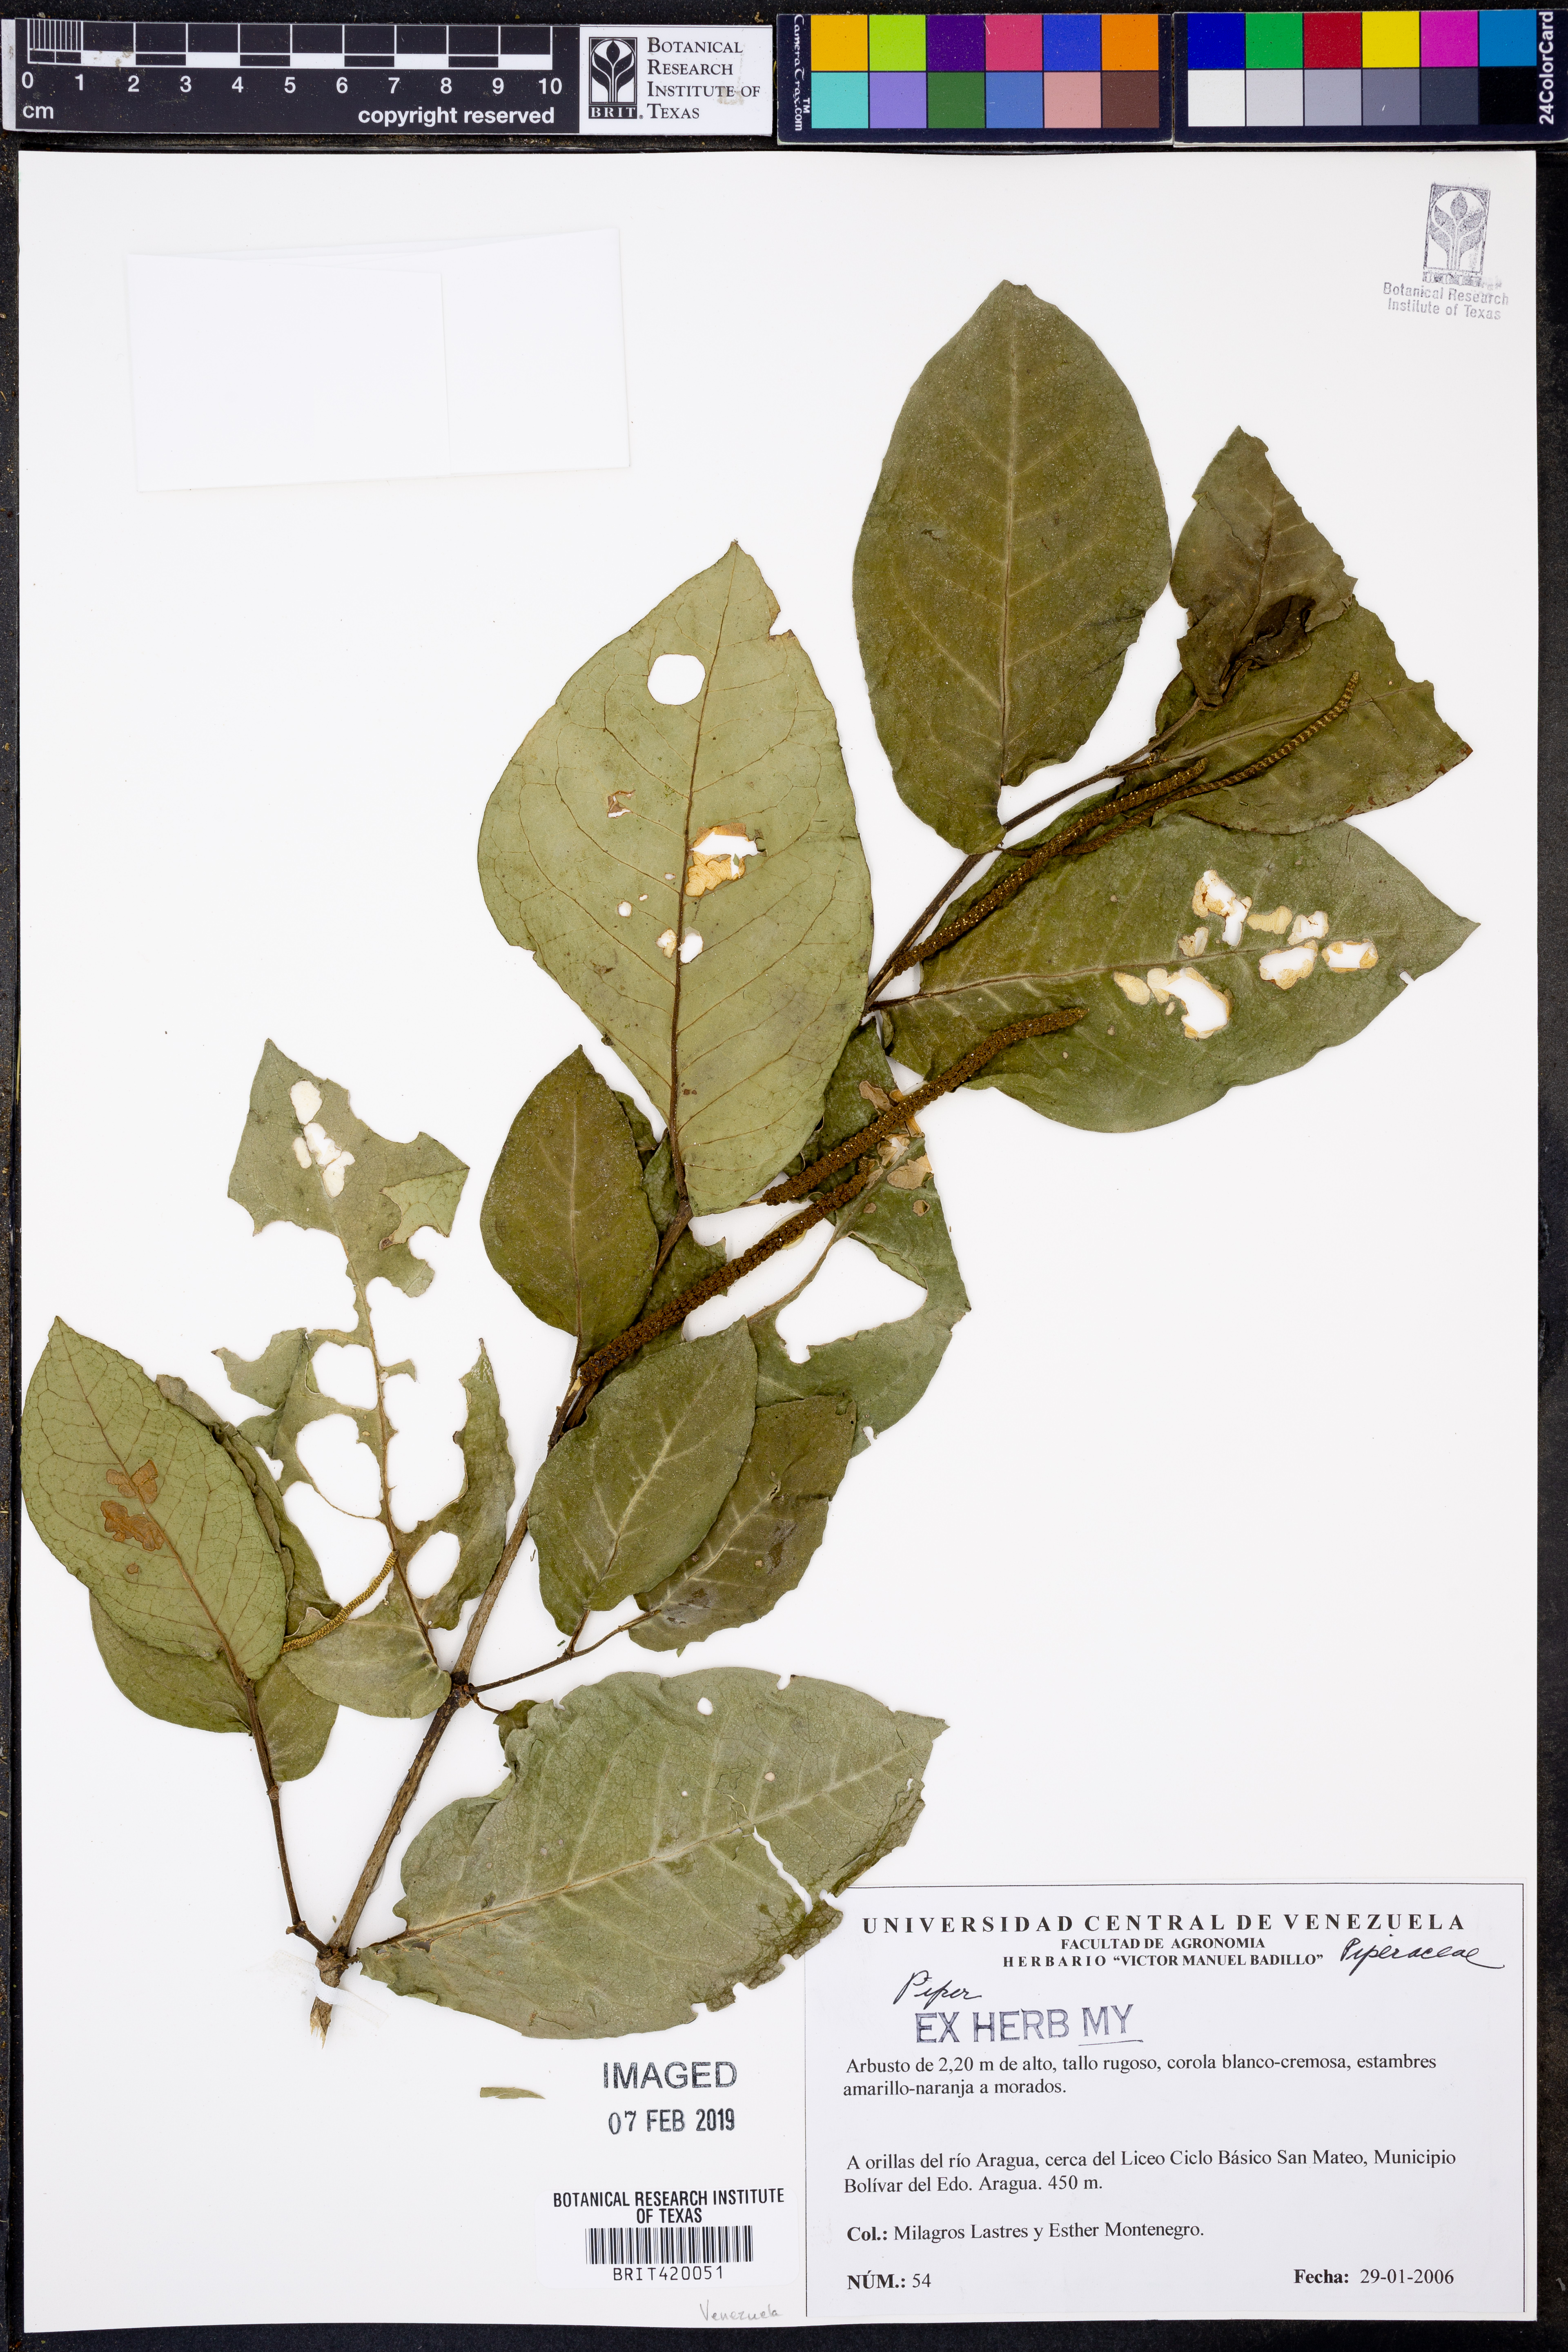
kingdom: Plantae
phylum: Tracheophyta
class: Magnoliopsida
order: Piperales
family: Piperaceae
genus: Piper
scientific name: Piper
